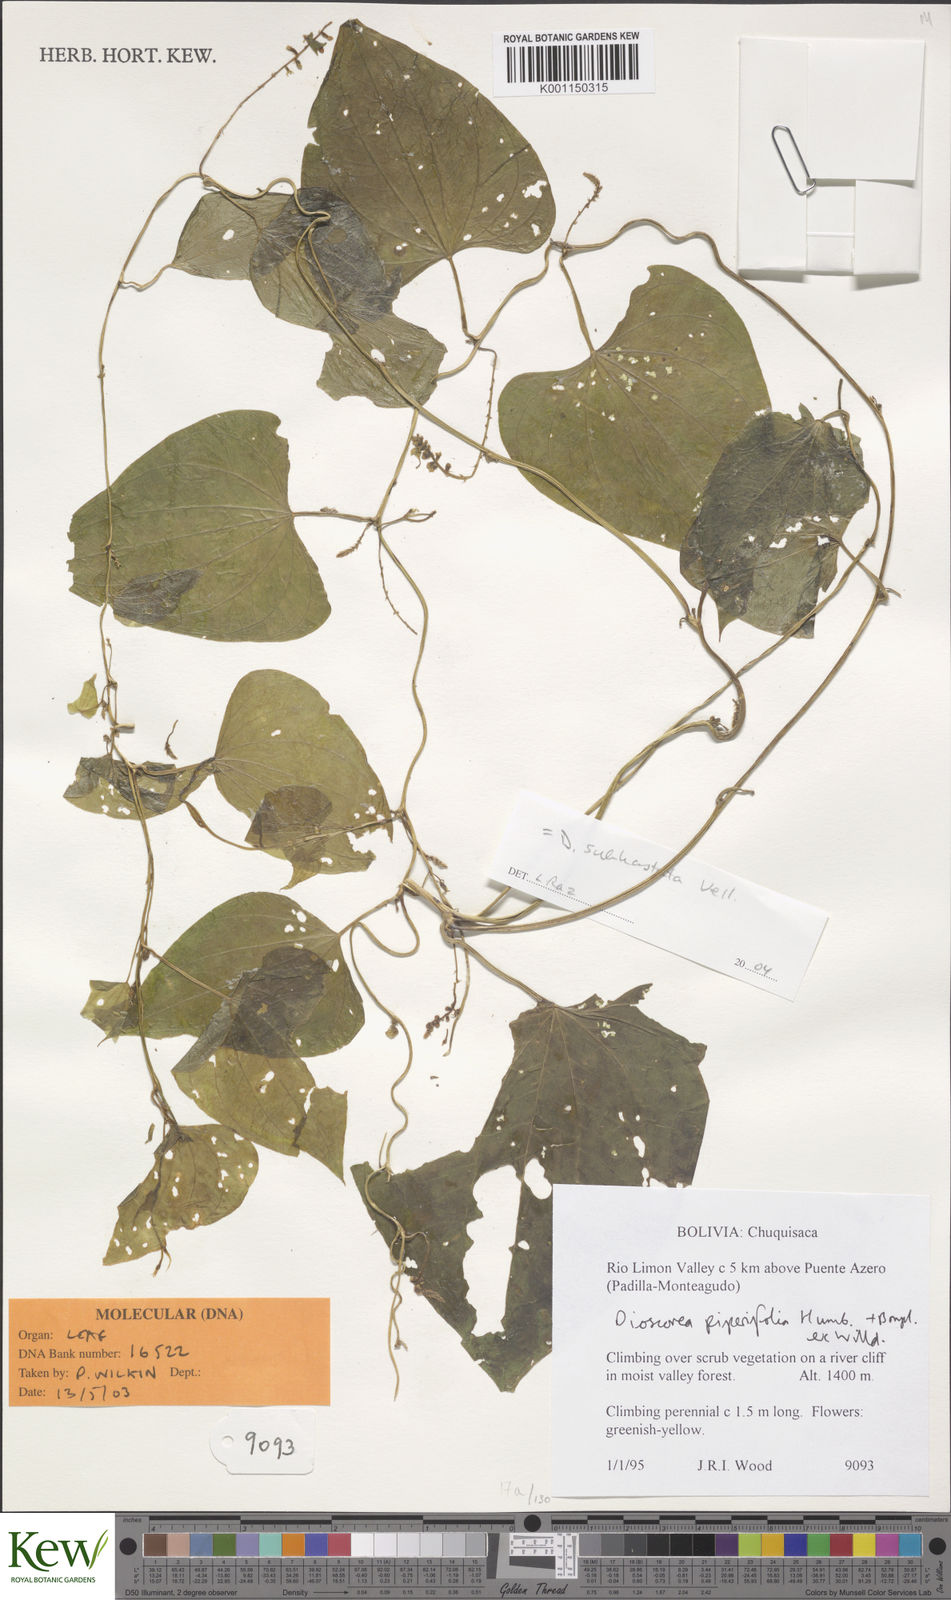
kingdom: Plantae
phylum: Tracheophyta
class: Liliopsida
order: Dioscoreales
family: Dioscoreaceae
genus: Dioscorea
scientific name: Dioscorea subhastata
